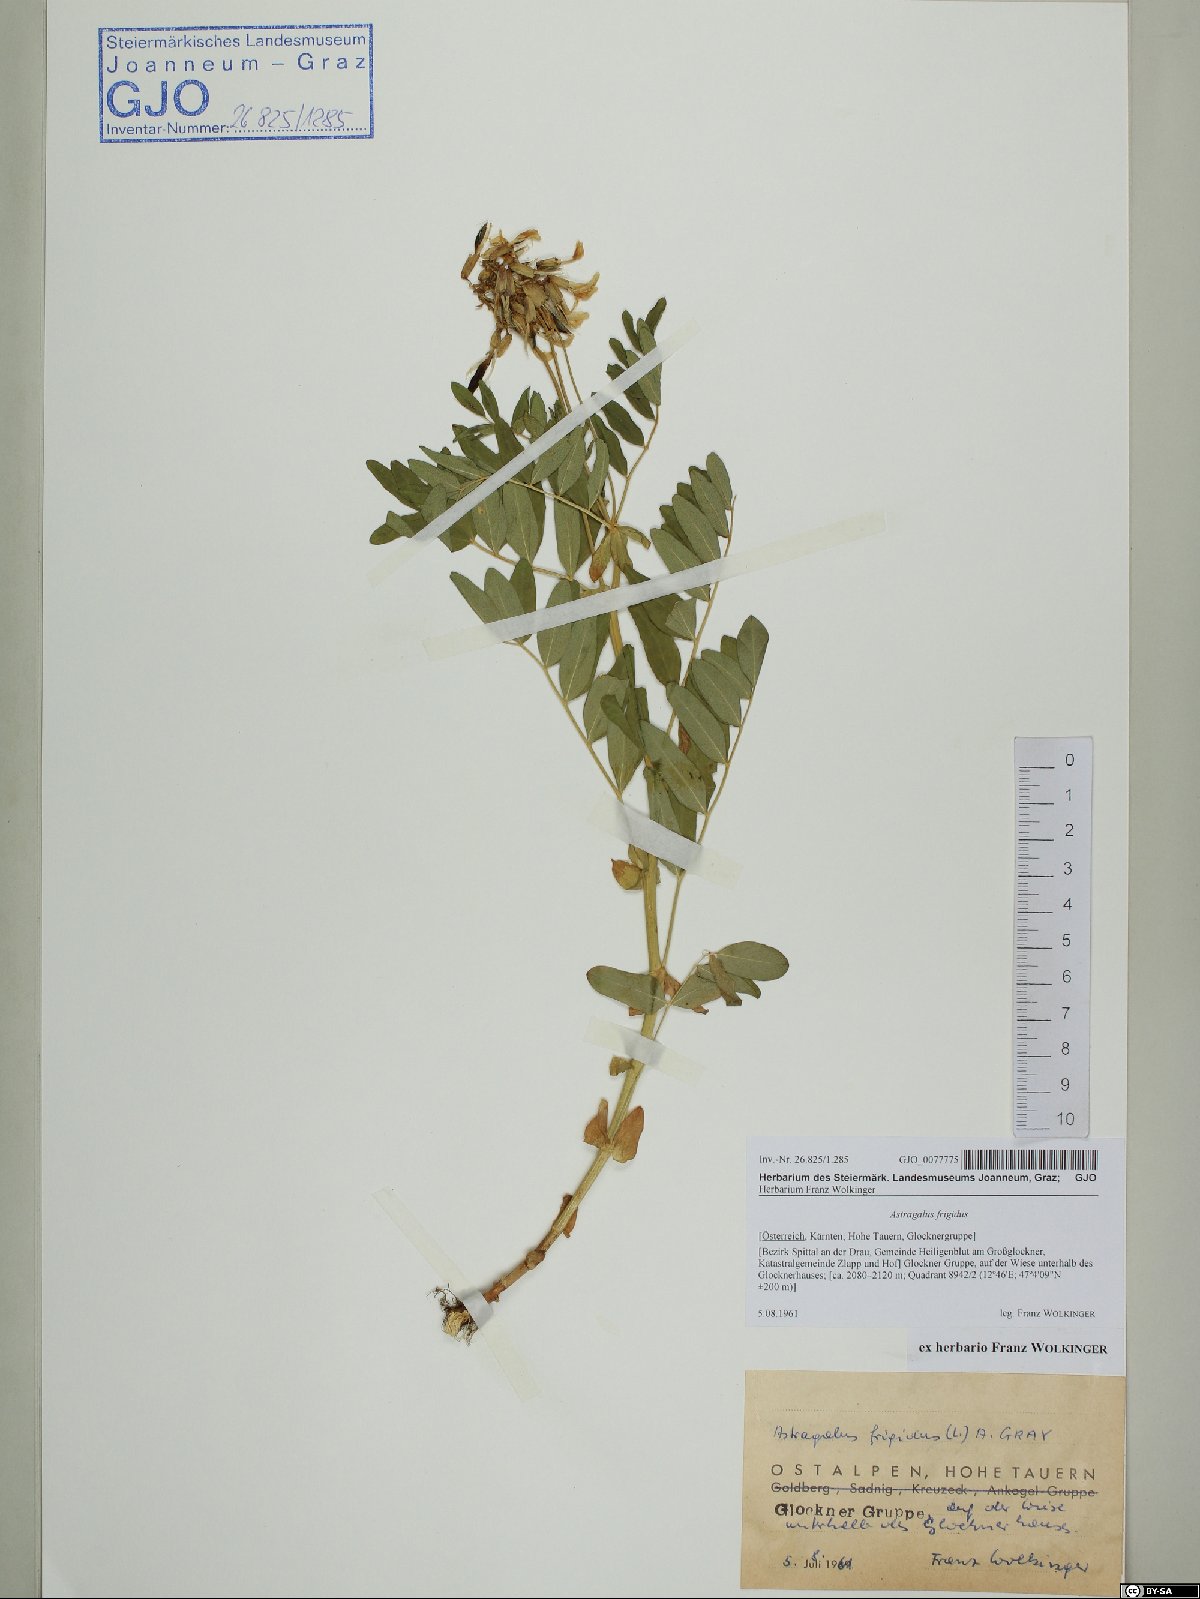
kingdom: Plantae
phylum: Tracheophyta
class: Magnoliopsida
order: Fabales
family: Fabaceae
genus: Astragalus
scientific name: Astragalus frigidus
